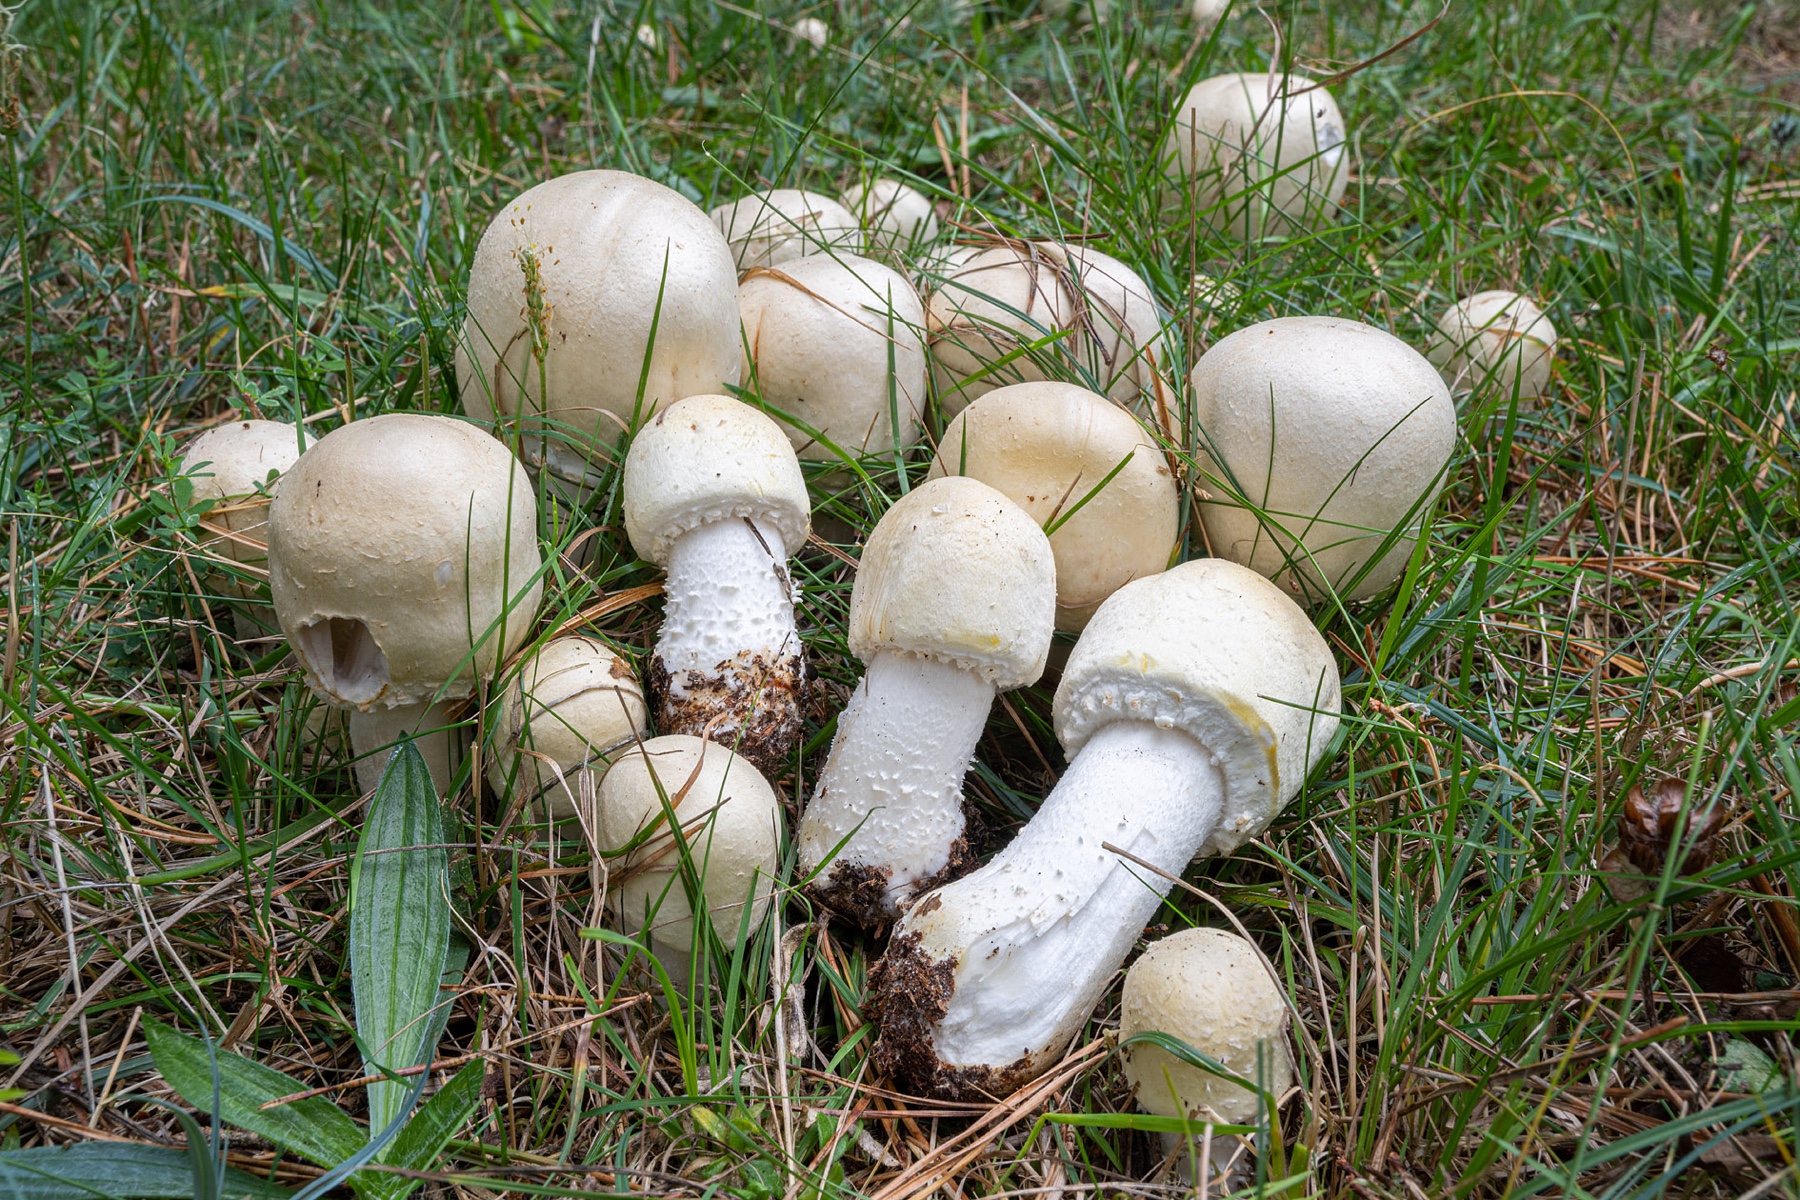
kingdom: Fungi
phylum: Basidiomycota
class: Agaricomycetes
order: Agaricales
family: Agaricaceae
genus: Agaricus
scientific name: Agaricus arvensis
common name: sprukken champignon
